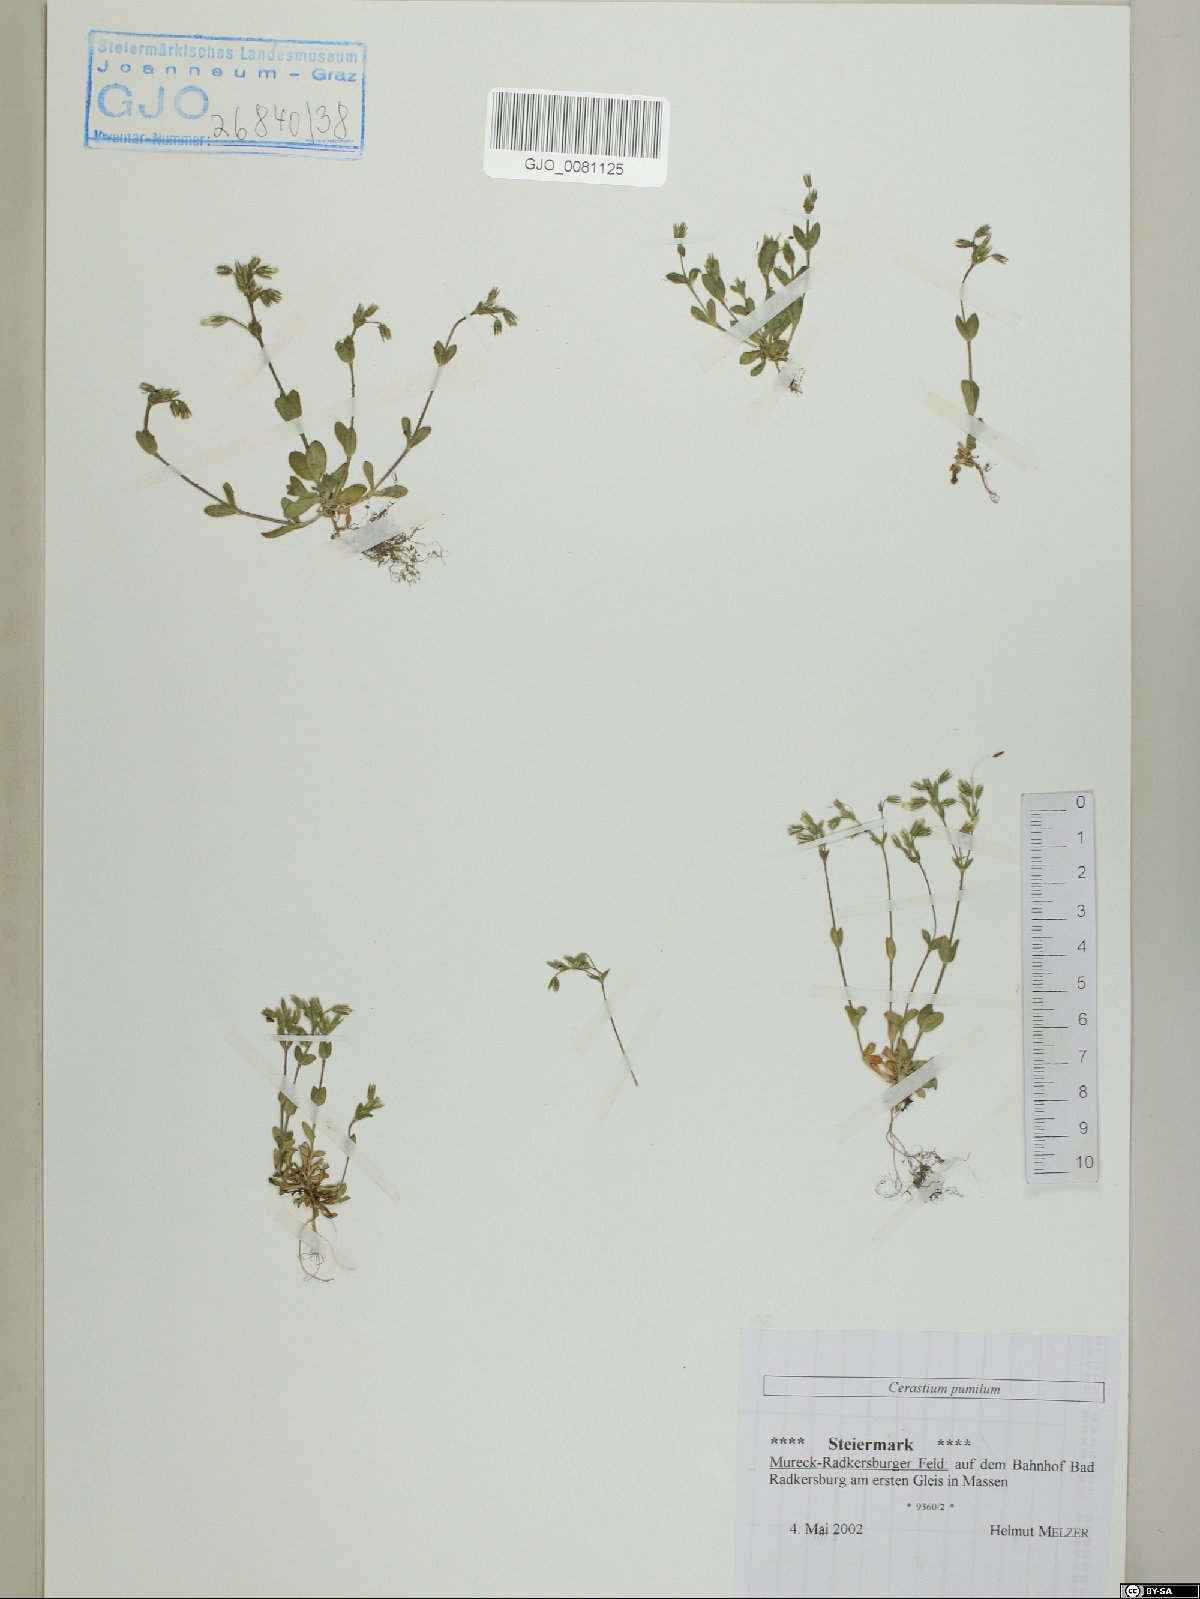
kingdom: Plantae
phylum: Tracheophyta
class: Magnoliopsida
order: Caryophyllales
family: Caryophyllaceae
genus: Cerastium
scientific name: Cerastium pumilum
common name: Dwarf mouse-ear
